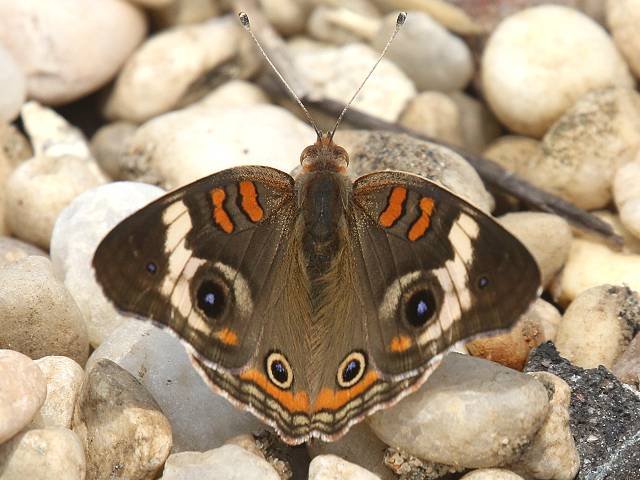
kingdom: Animalia
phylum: Arthropoda
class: Insecta
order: Lepidoptera
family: Nymphalidae
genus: Junonia
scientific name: Junonia coenia
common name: Common Buckeye
